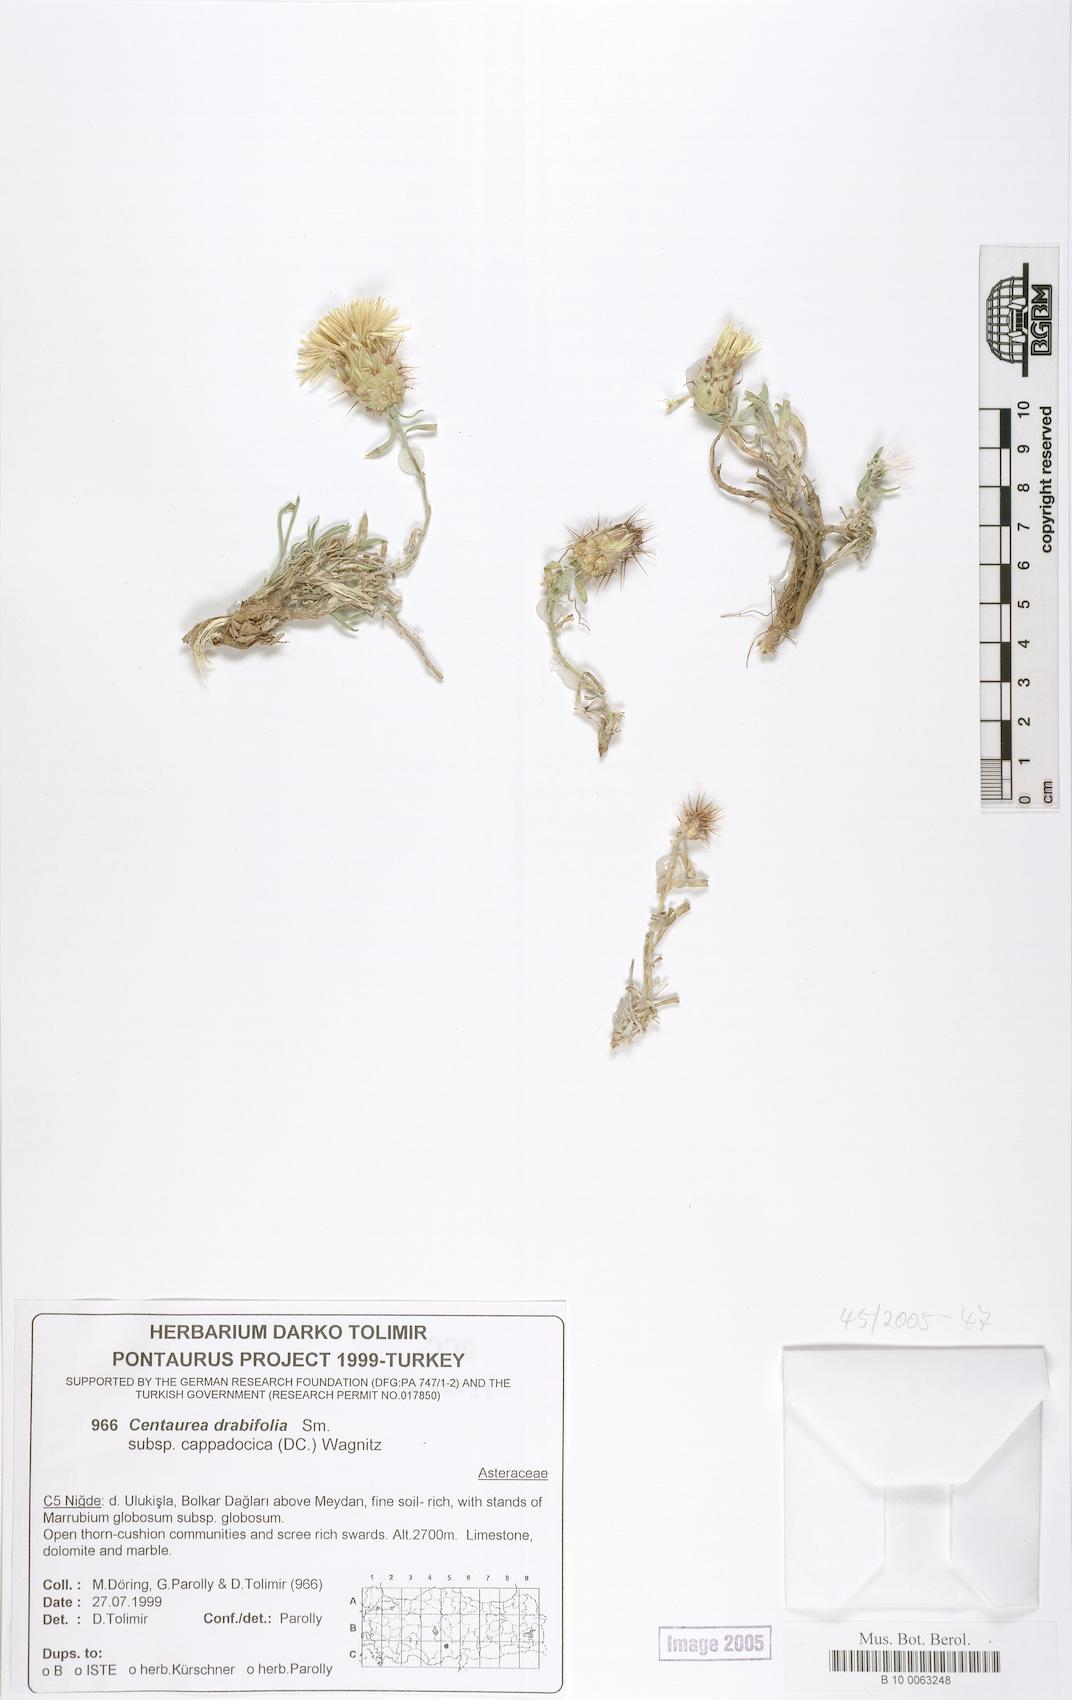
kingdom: Plantae
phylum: Tracheophyta
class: Magnoliopsida
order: Asterales
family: Asteraceae
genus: Centaurea
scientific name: Centaurea drabifolia
